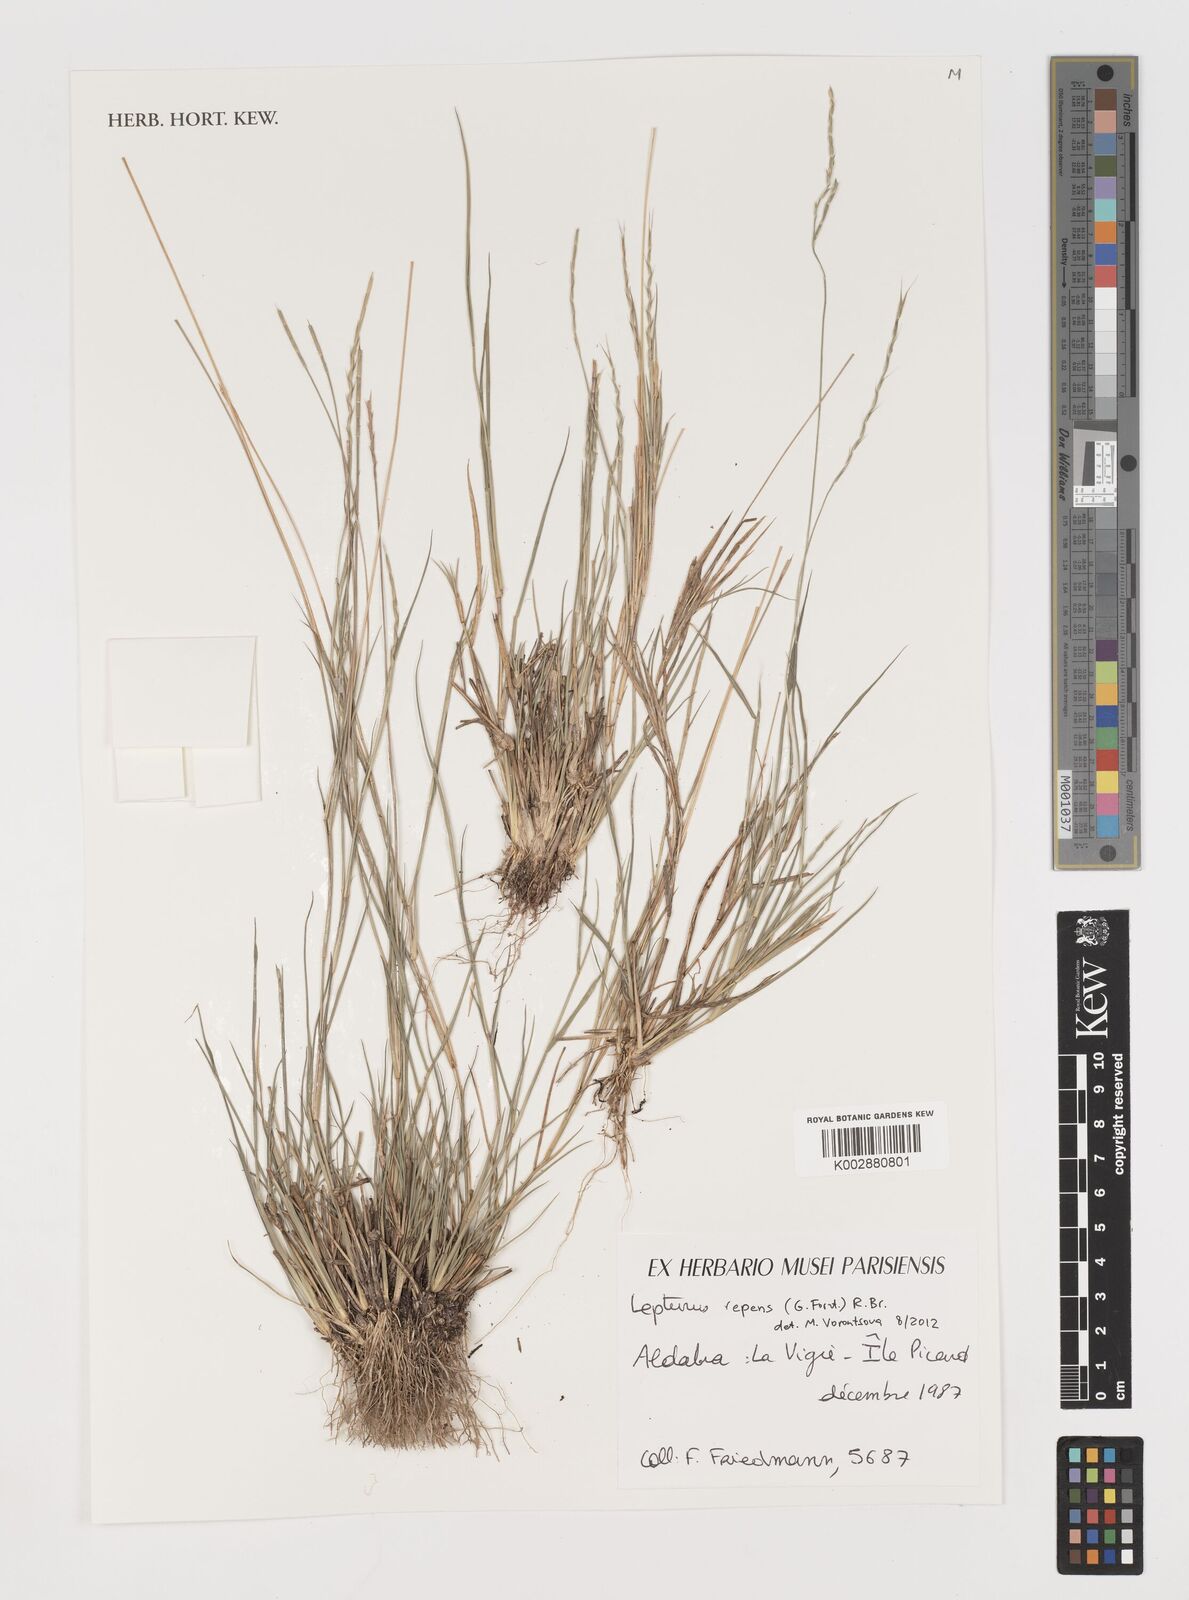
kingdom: Plantae
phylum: Tracheophyta
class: Liliopsida
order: Poales
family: Poaceae
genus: Lepturus
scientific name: Lepturus repens
